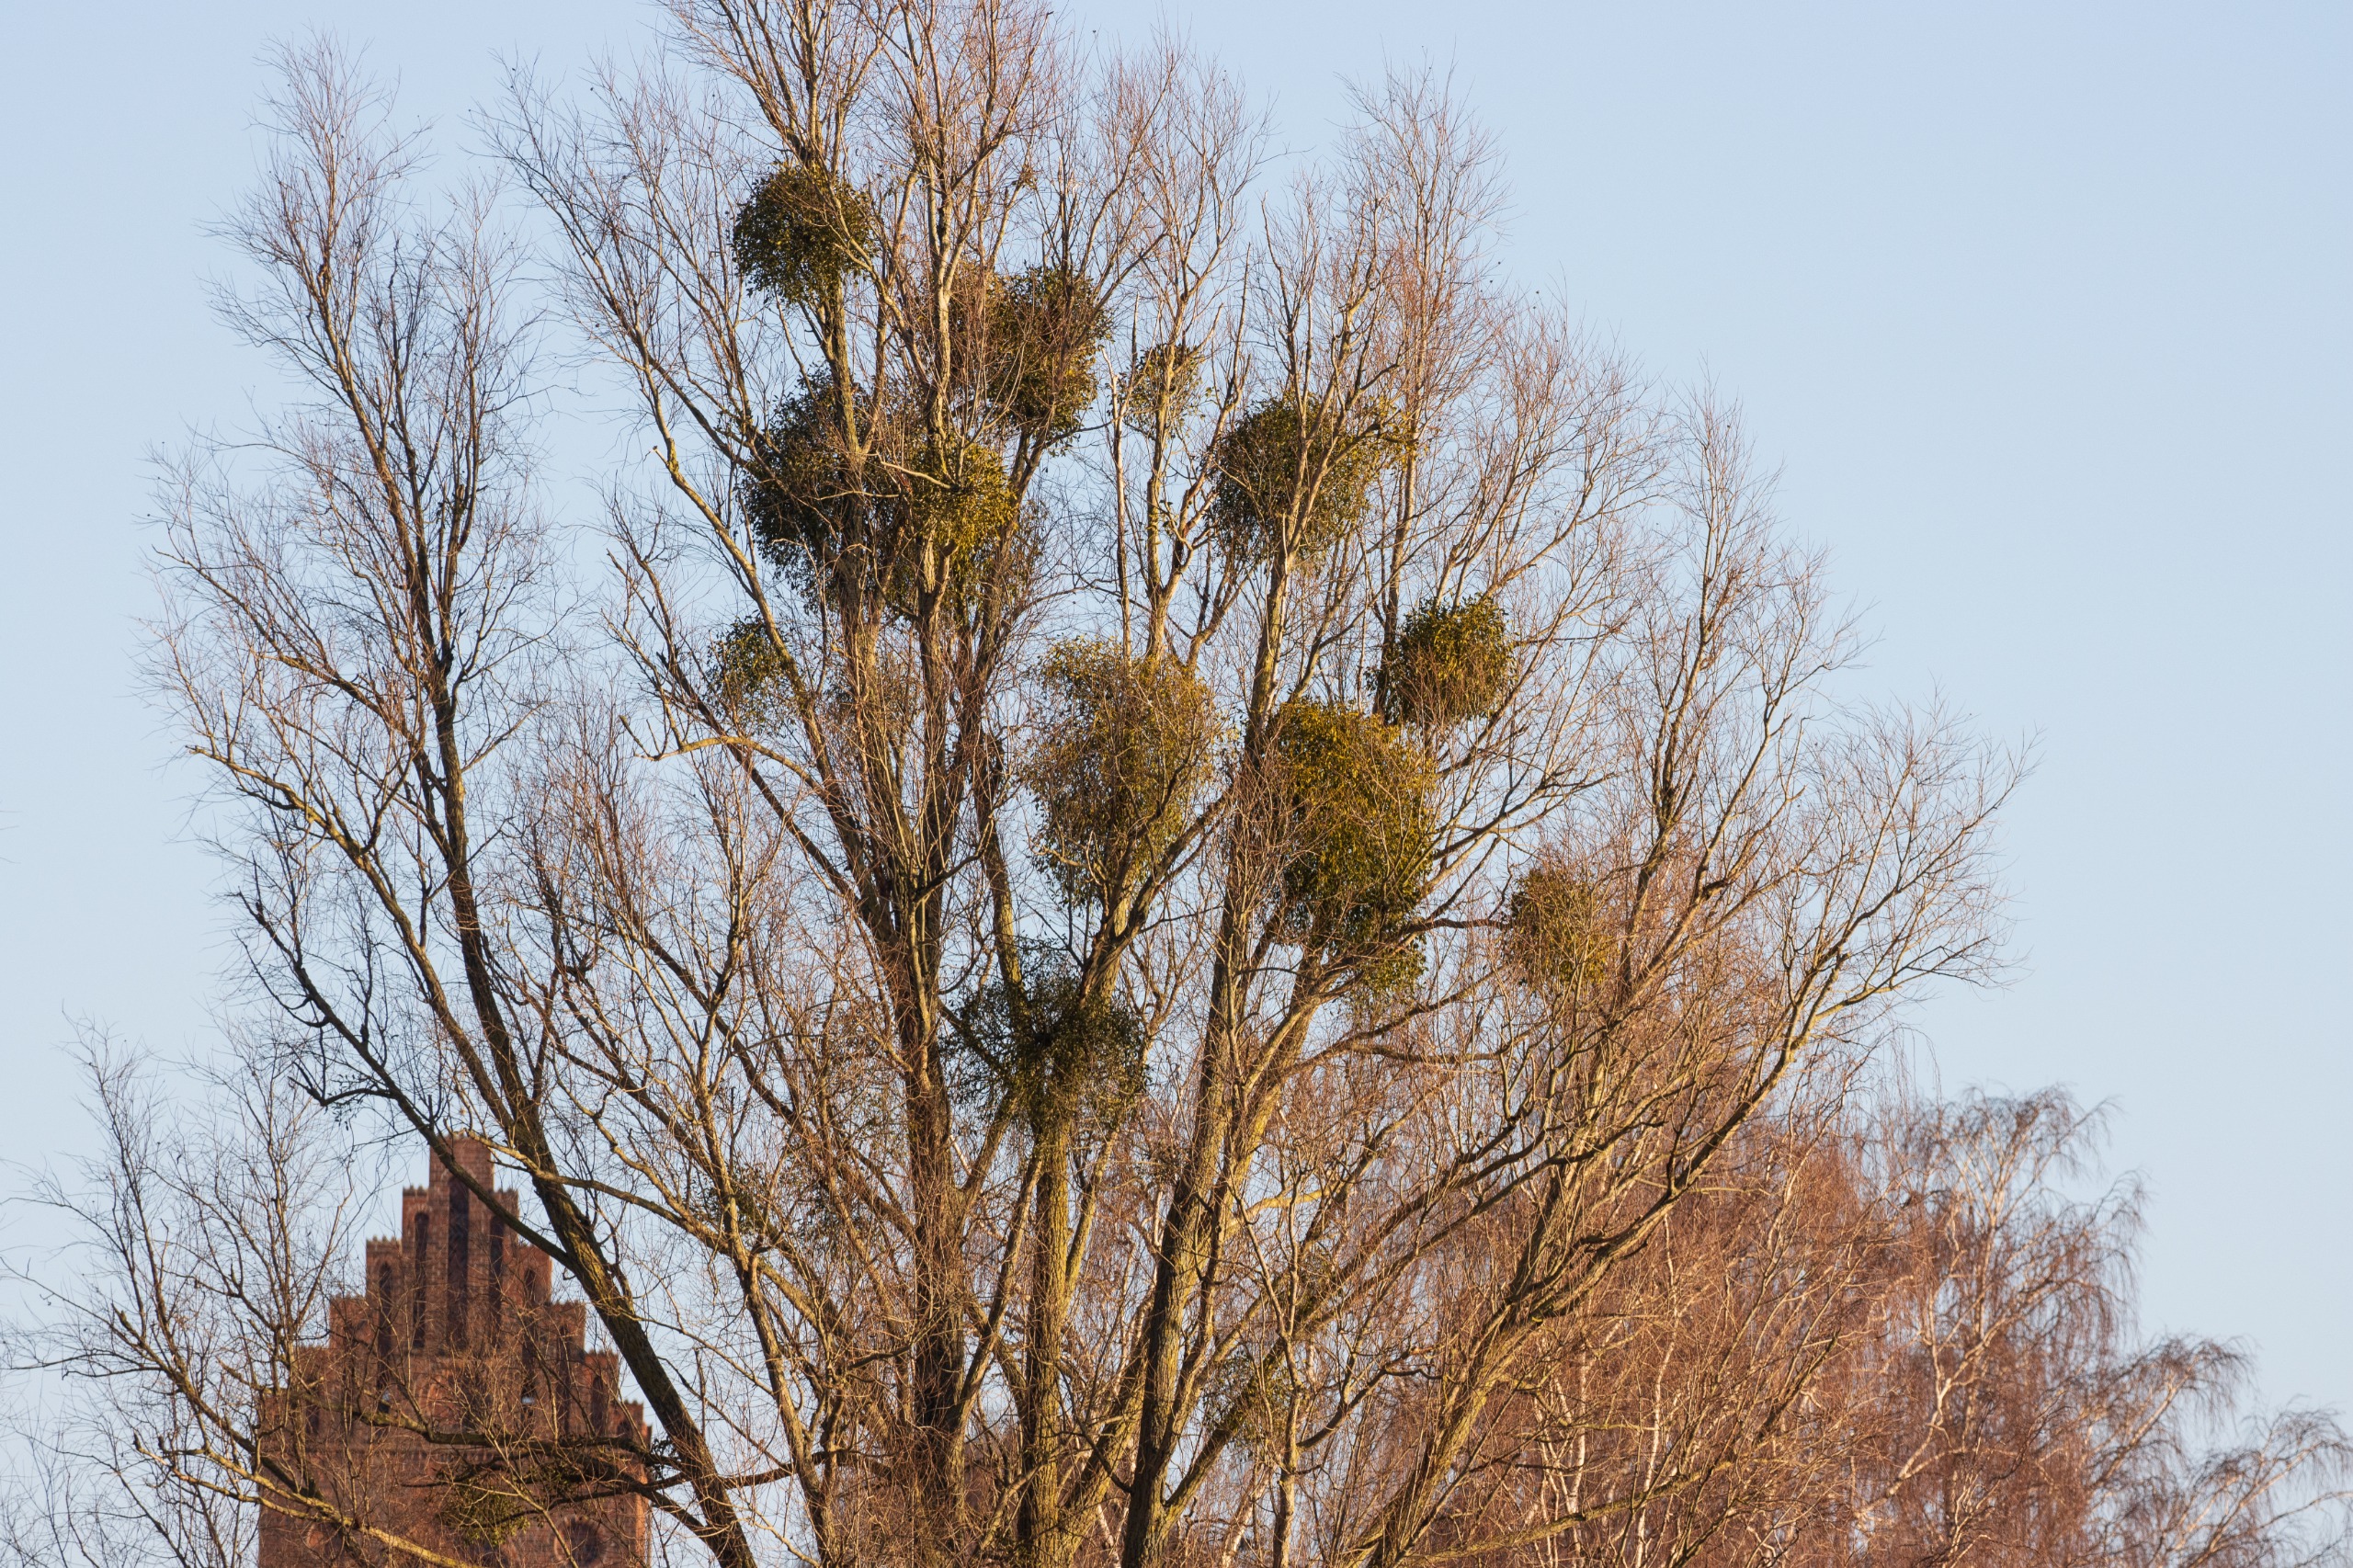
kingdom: Plantae
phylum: Tracheophyta
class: Magnoliopsida
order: Santalales
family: Viscaceae
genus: Viscum
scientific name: Viscum album
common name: Mistelten
